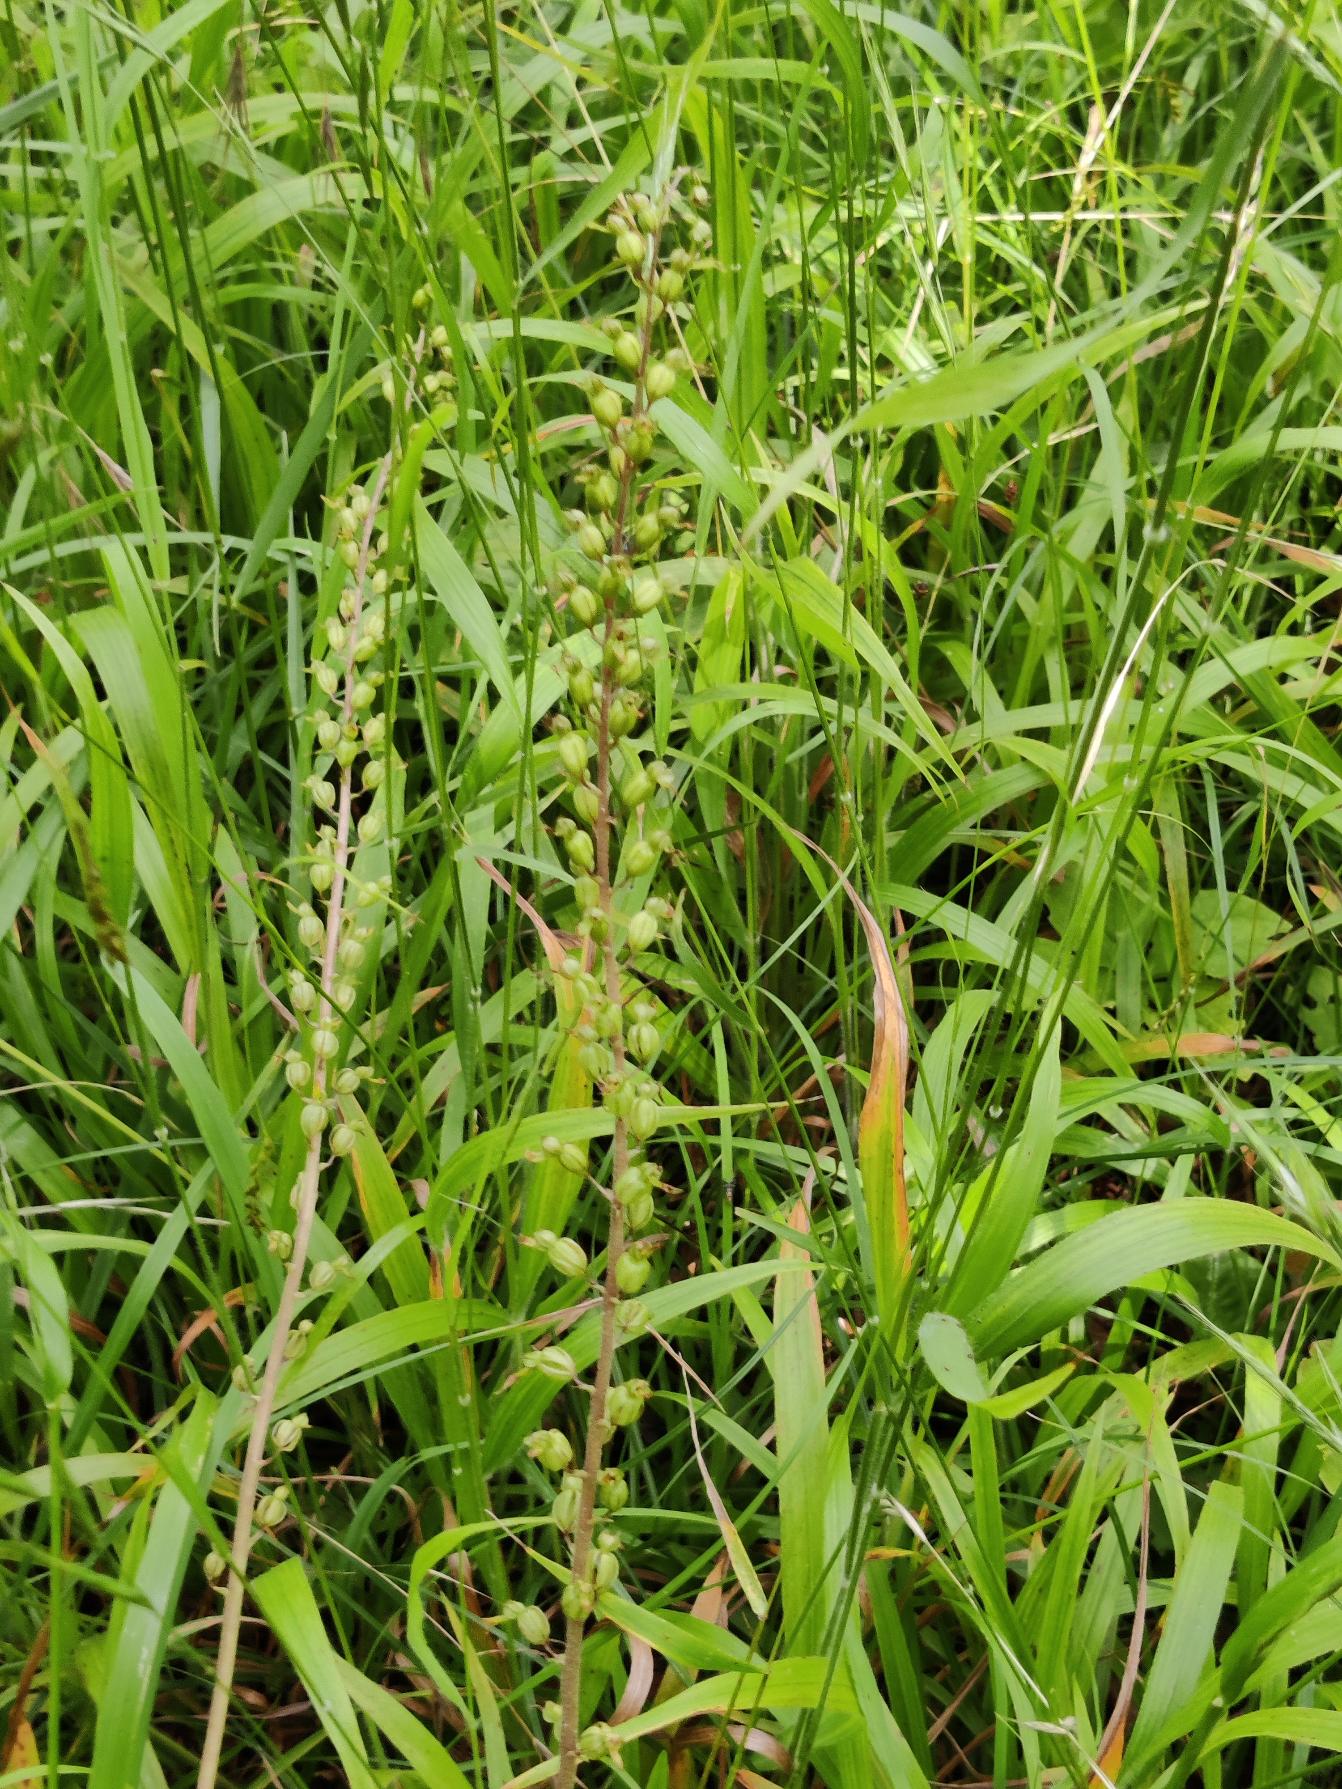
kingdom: Plantae
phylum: Tracheophyta
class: Liliopsida
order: Asparagales
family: Orchidaceae
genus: Neottia
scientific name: Neottia ovata
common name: Ægbladet fliglæbe
